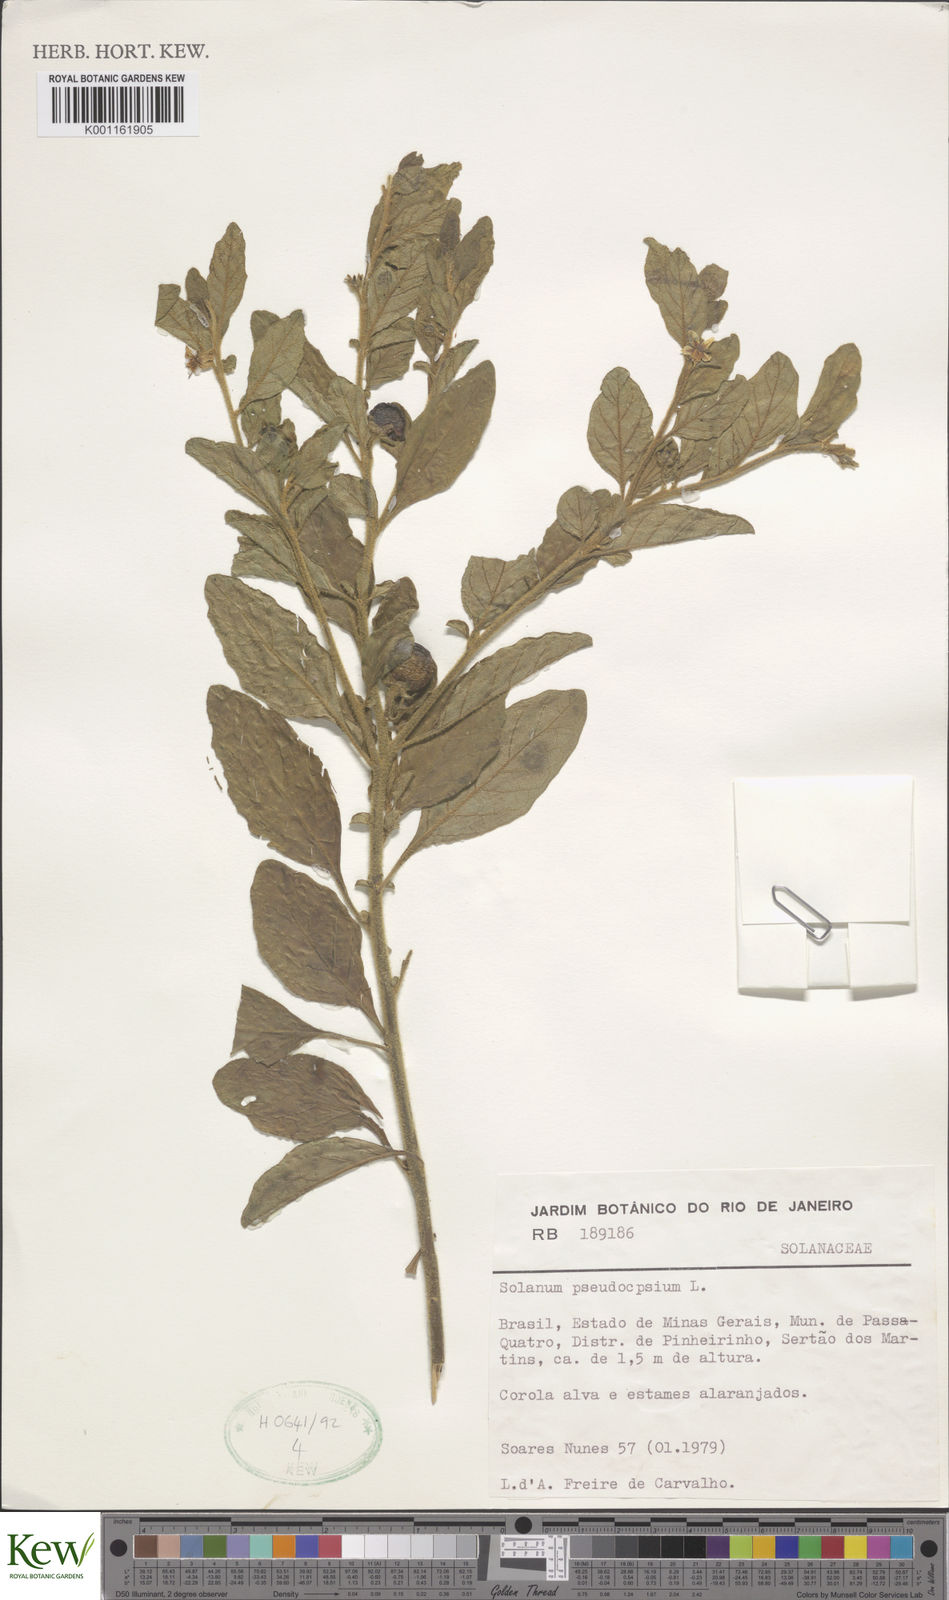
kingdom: Plantae
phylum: Tracheophyta
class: Magnoliopsida
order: Solanales
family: Solanaceae
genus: Solanum
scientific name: Solanum pseudocapsicum
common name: Jerusalem cherry
